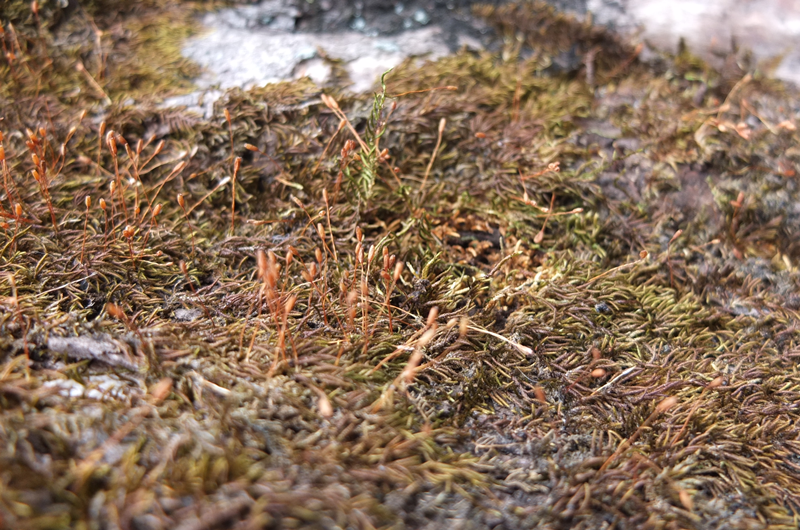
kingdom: Plantae
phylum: Bryophyta
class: Bryopsida
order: Hypnales
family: Entodontaceae
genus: Erythrodontium
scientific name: Erythrodontium
